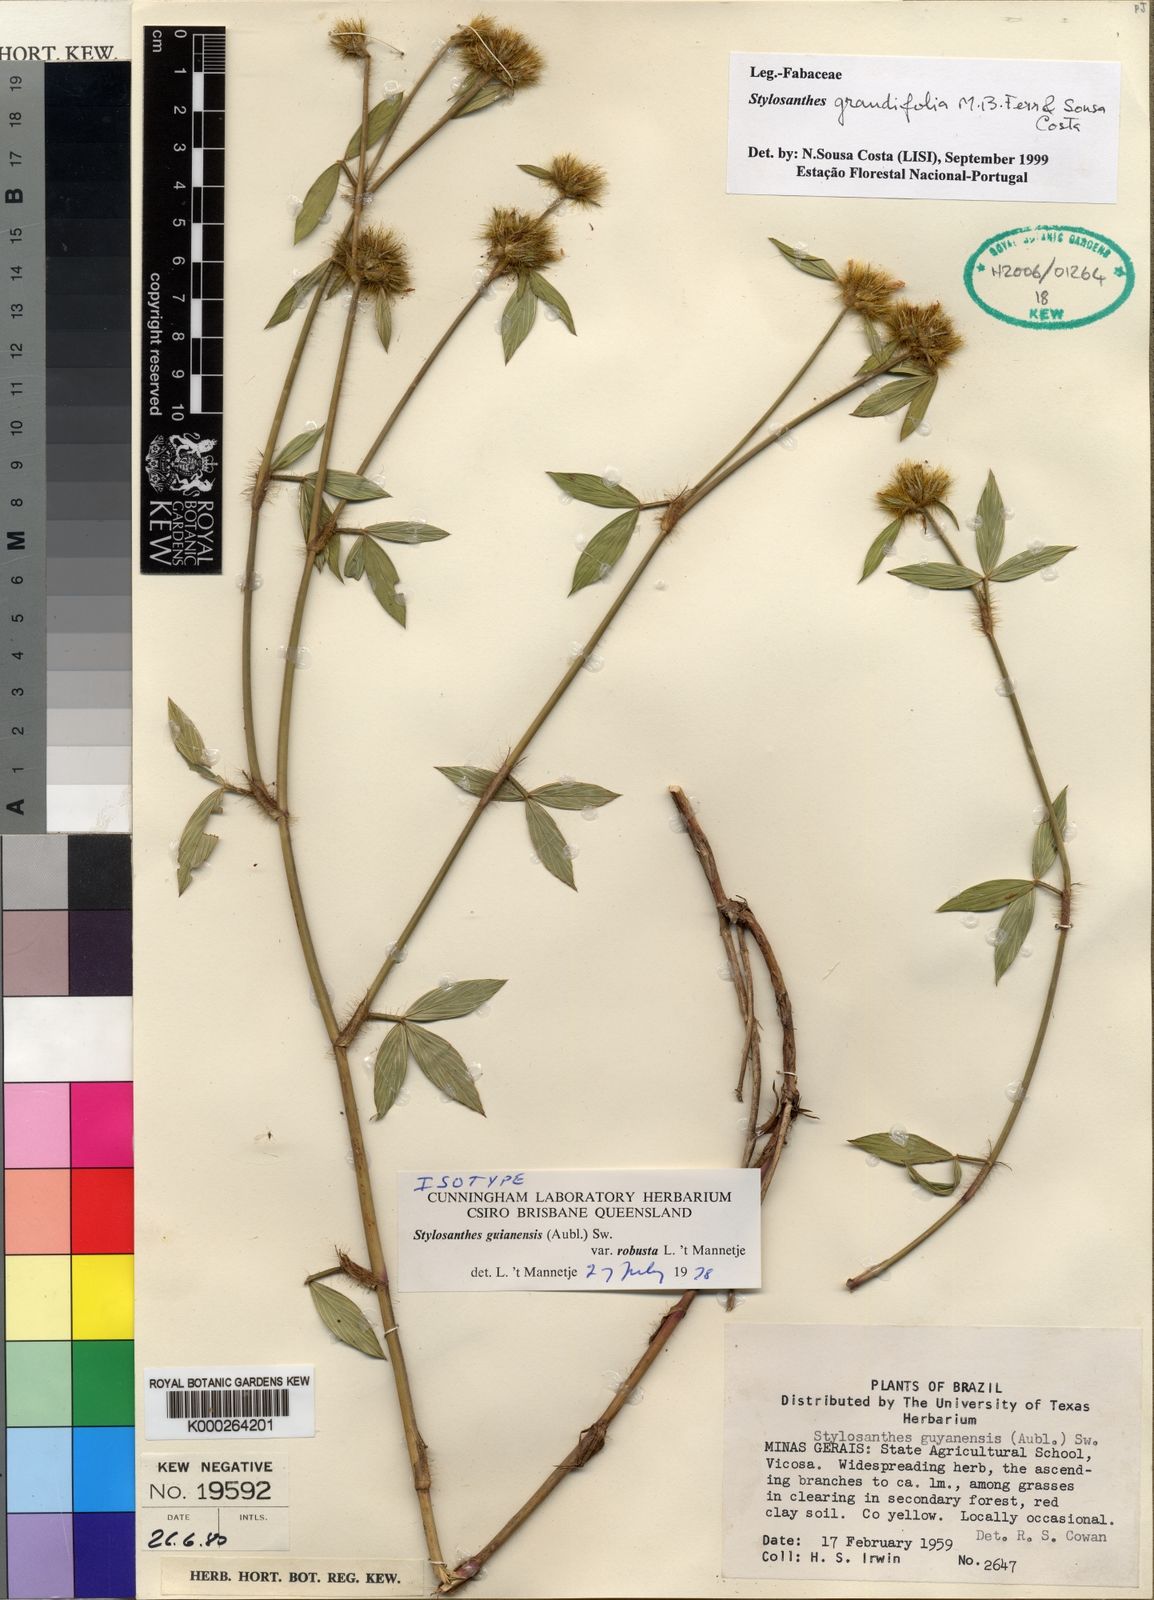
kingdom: Plantae
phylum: Tracheophyta
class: Magnoliopsida
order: Fabales
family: Fabaceae
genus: Stylosanthes
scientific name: Stylosanthes guianensis
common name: Pencil flower
